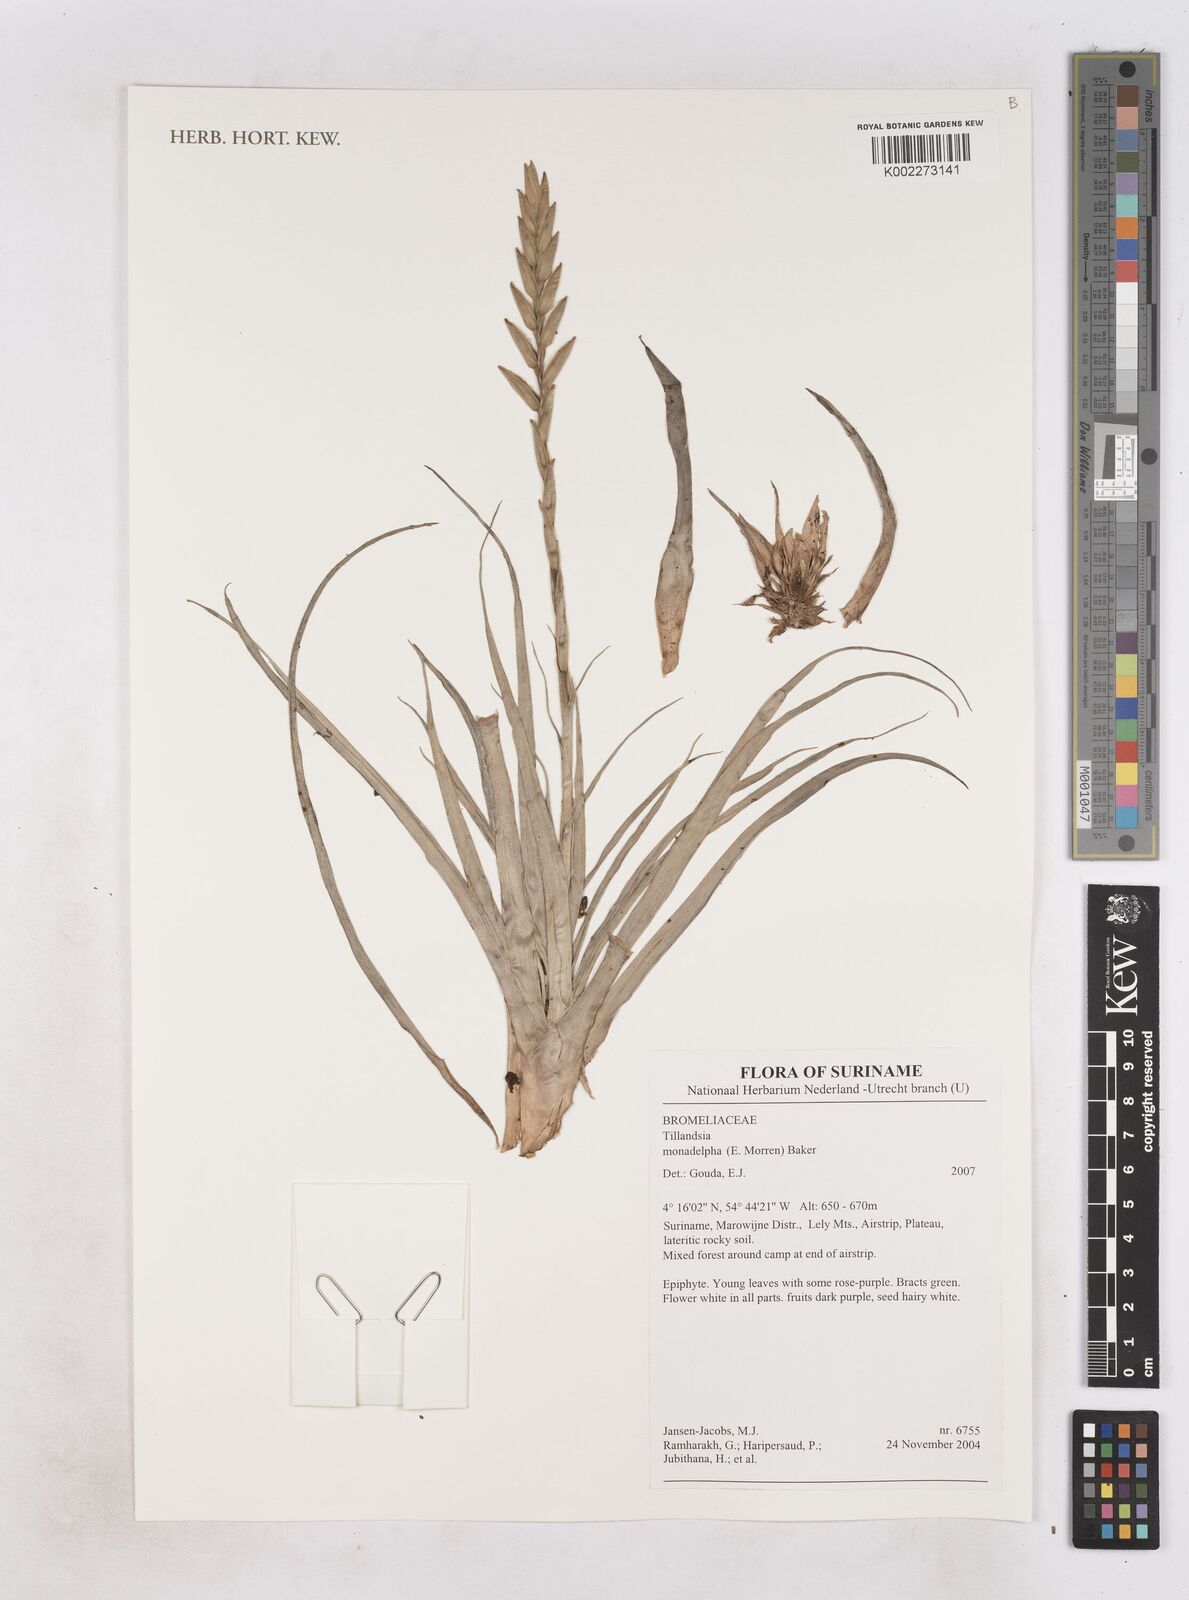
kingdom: Plantae
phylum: Tracheophyta
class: Liliopsida
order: Poales
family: Bromeliaceae
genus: Lemeltonia
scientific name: Lemeltonia monadelpha
